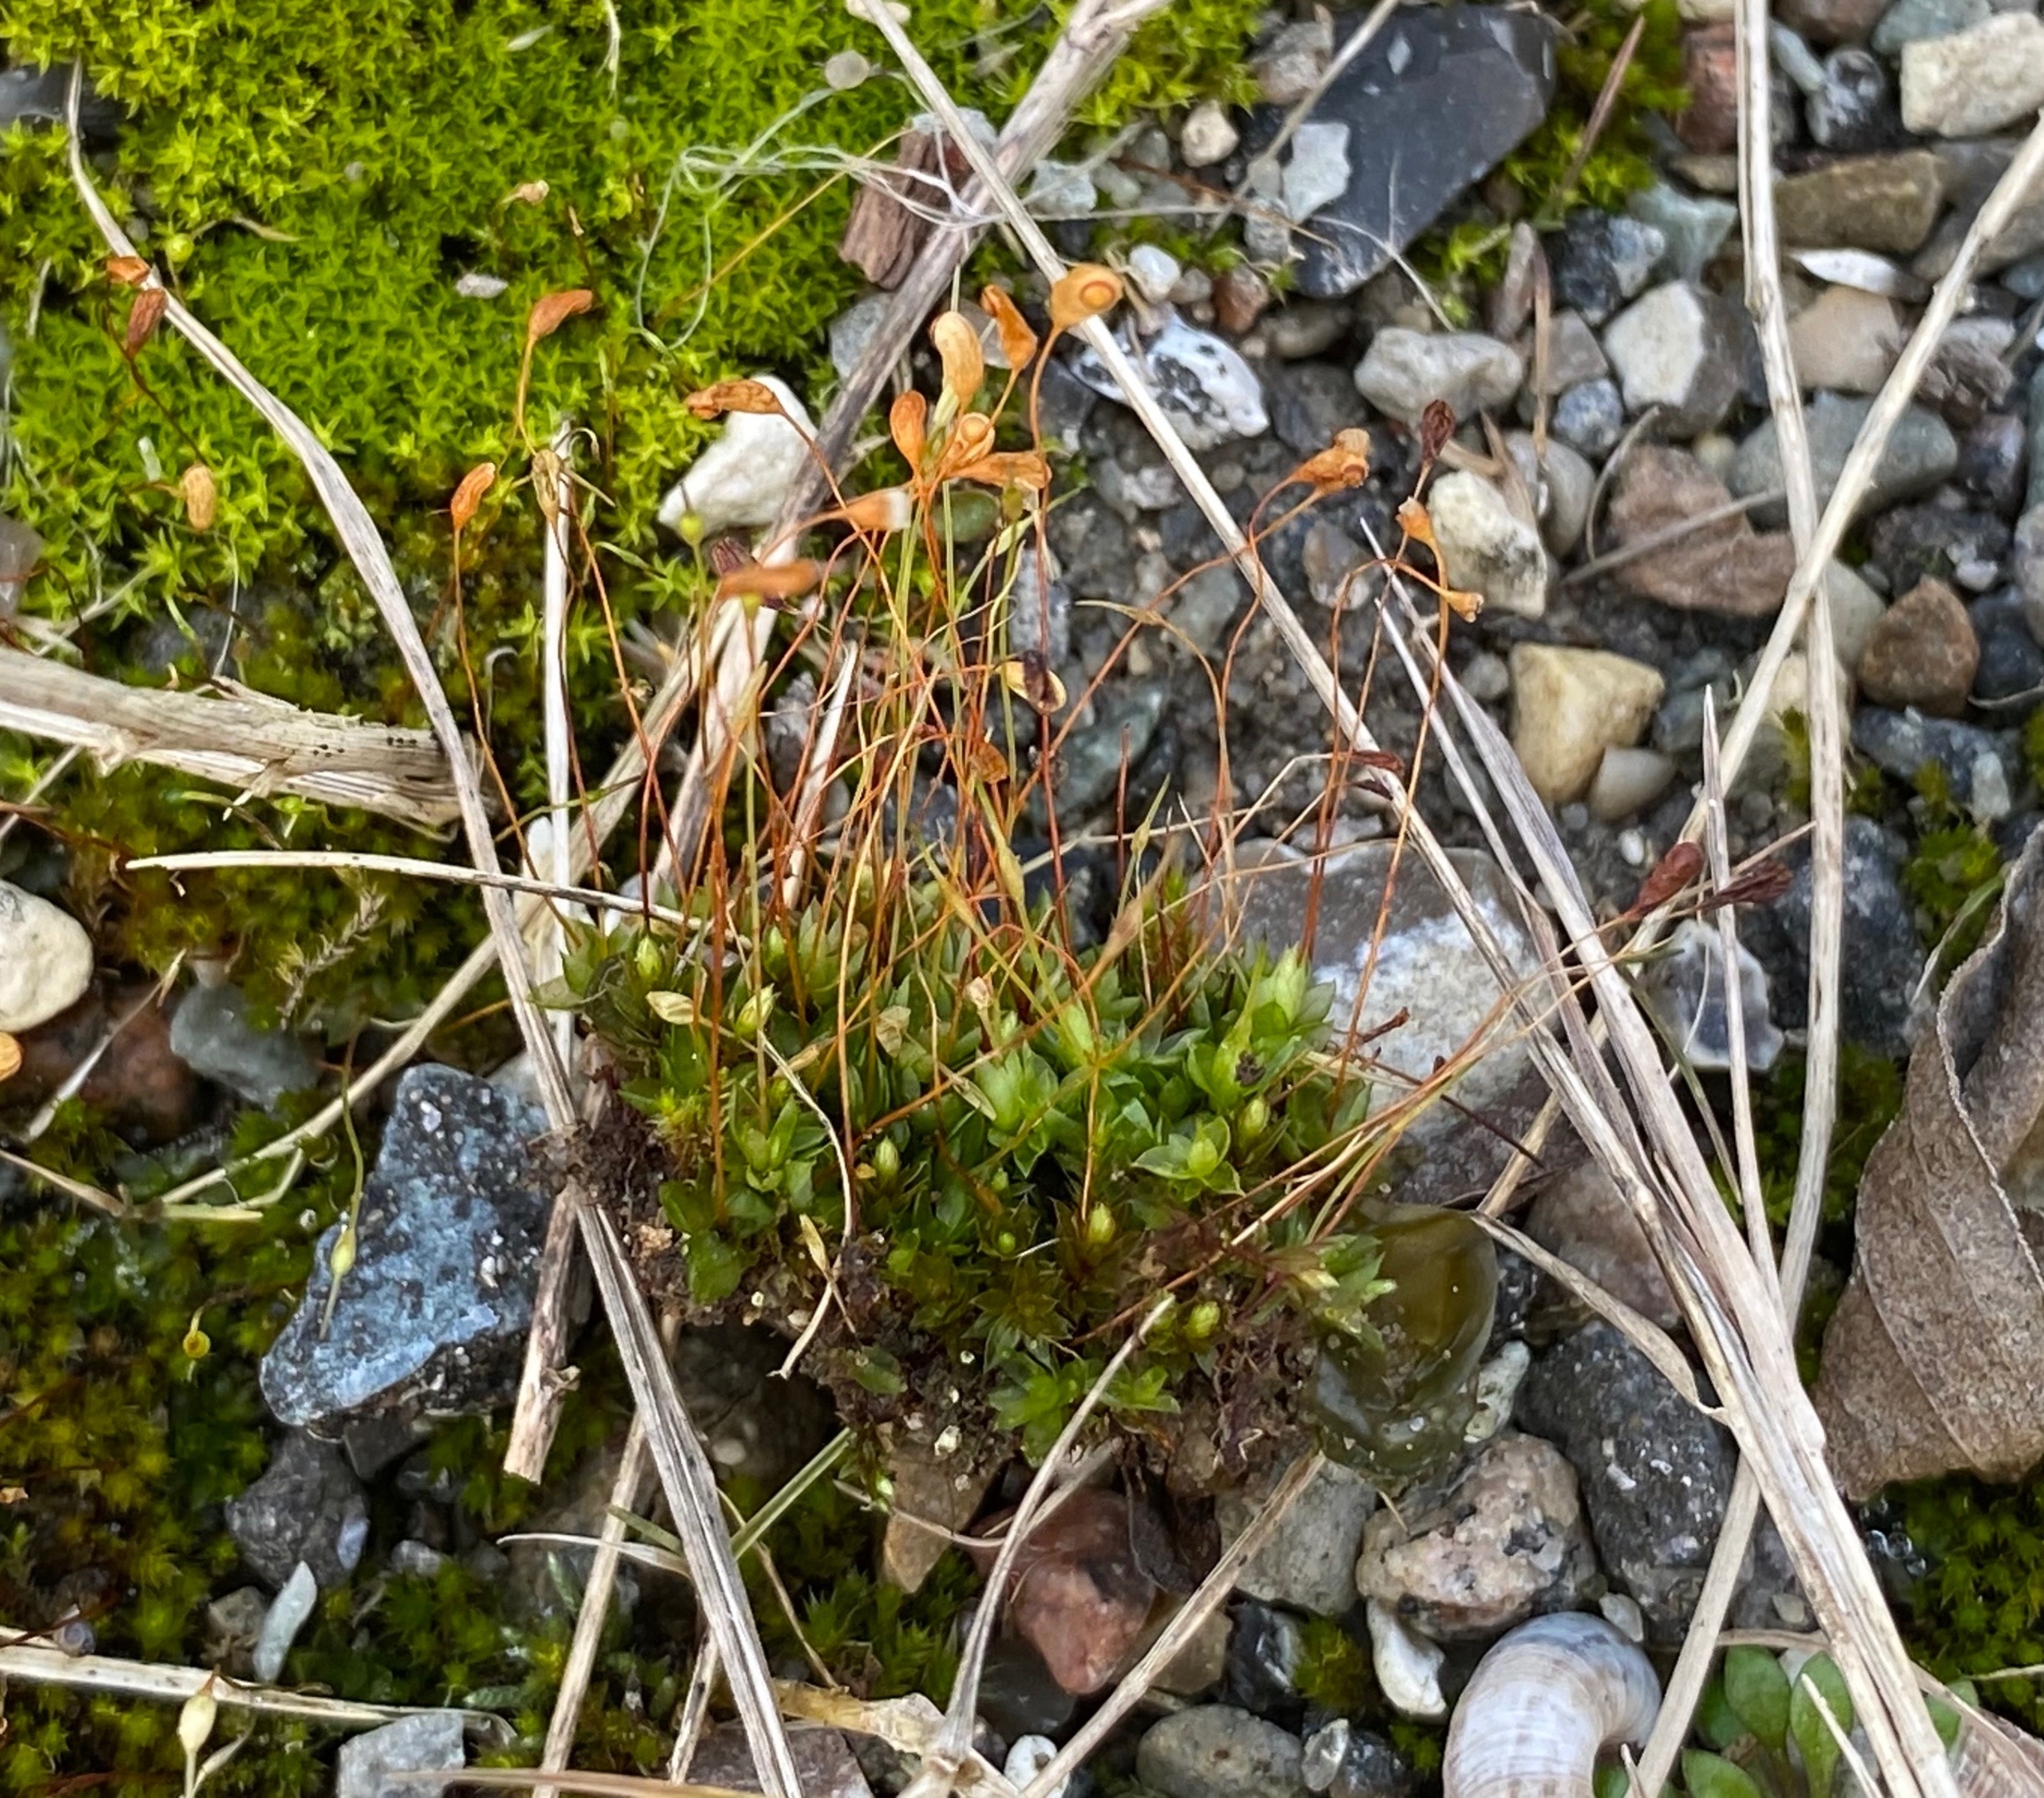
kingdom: Plantae
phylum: Bryophyta
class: Bryopsida
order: Funariales
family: Funariaceae
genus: Funaria
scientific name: Funaria hygrometrica
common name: Almindelig snobørste
